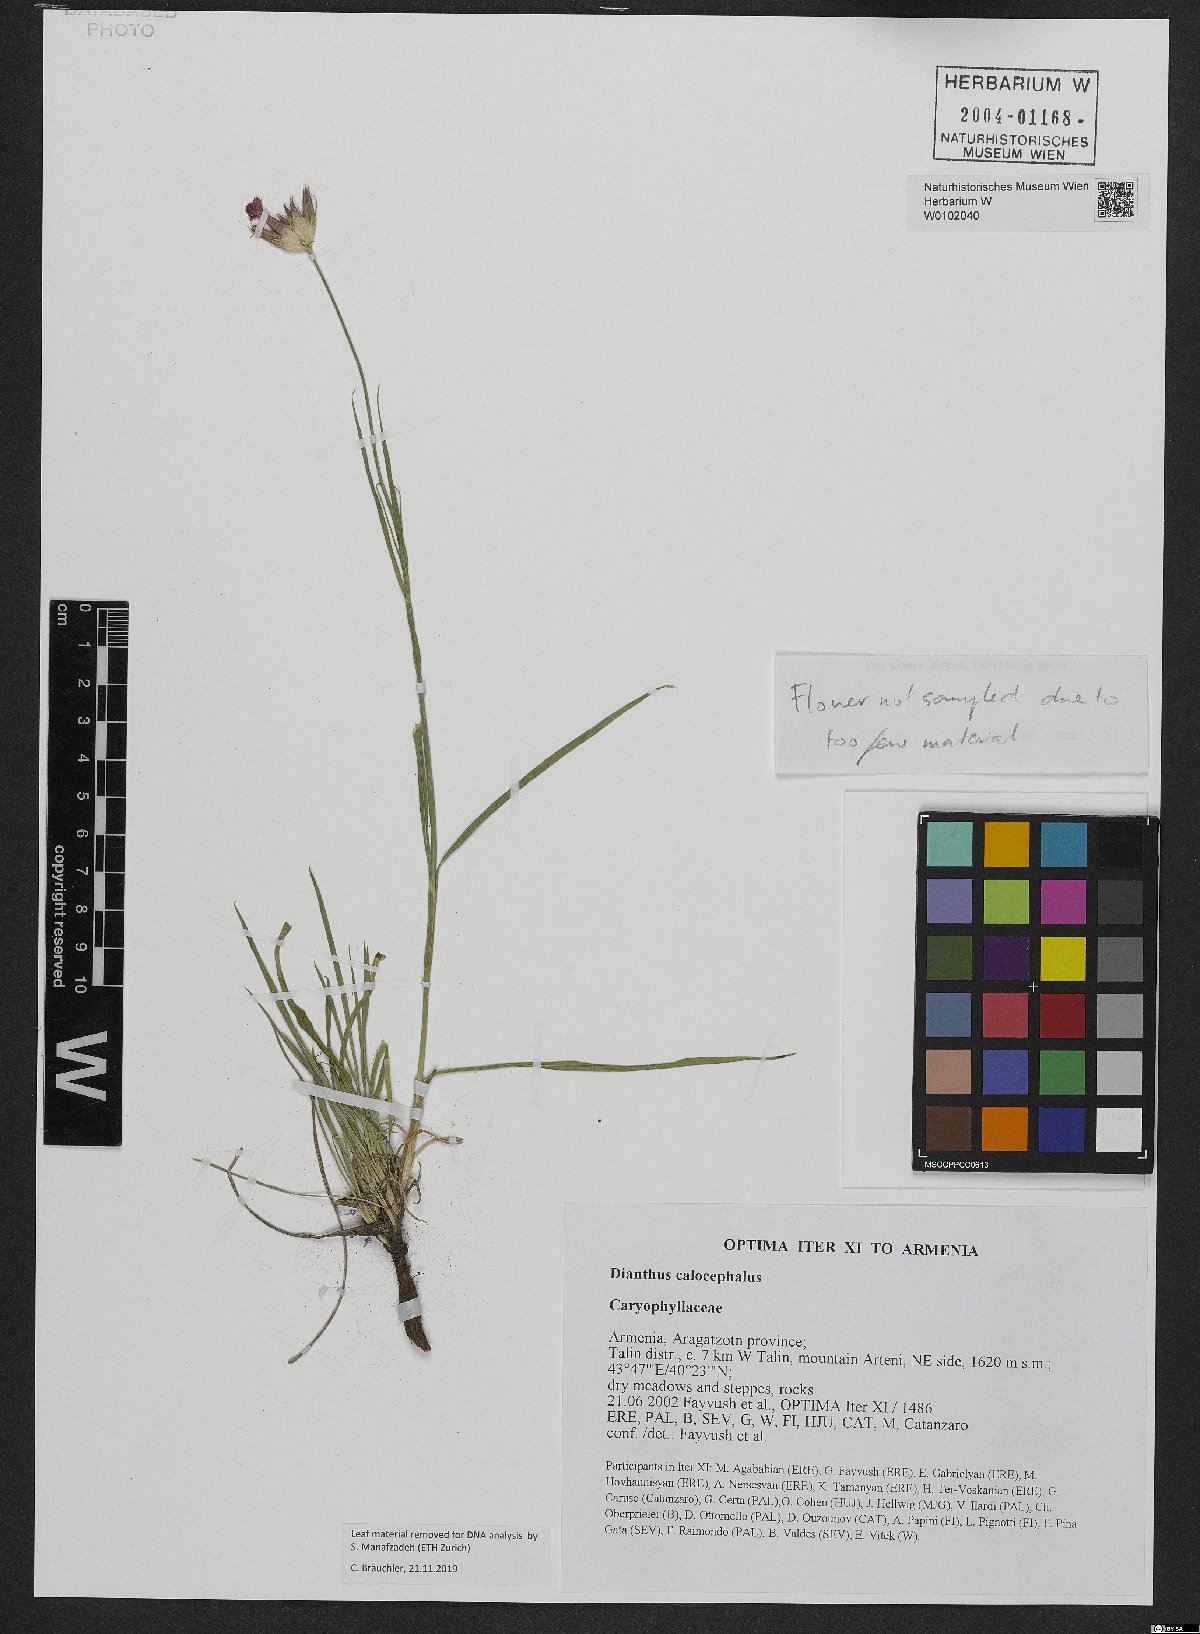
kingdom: Plantae
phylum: Tracheophyta
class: Magnoliopsida
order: Caryophyllales
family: Caryophyllaceae
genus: Dianthus
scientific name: Dianthus cruentus
